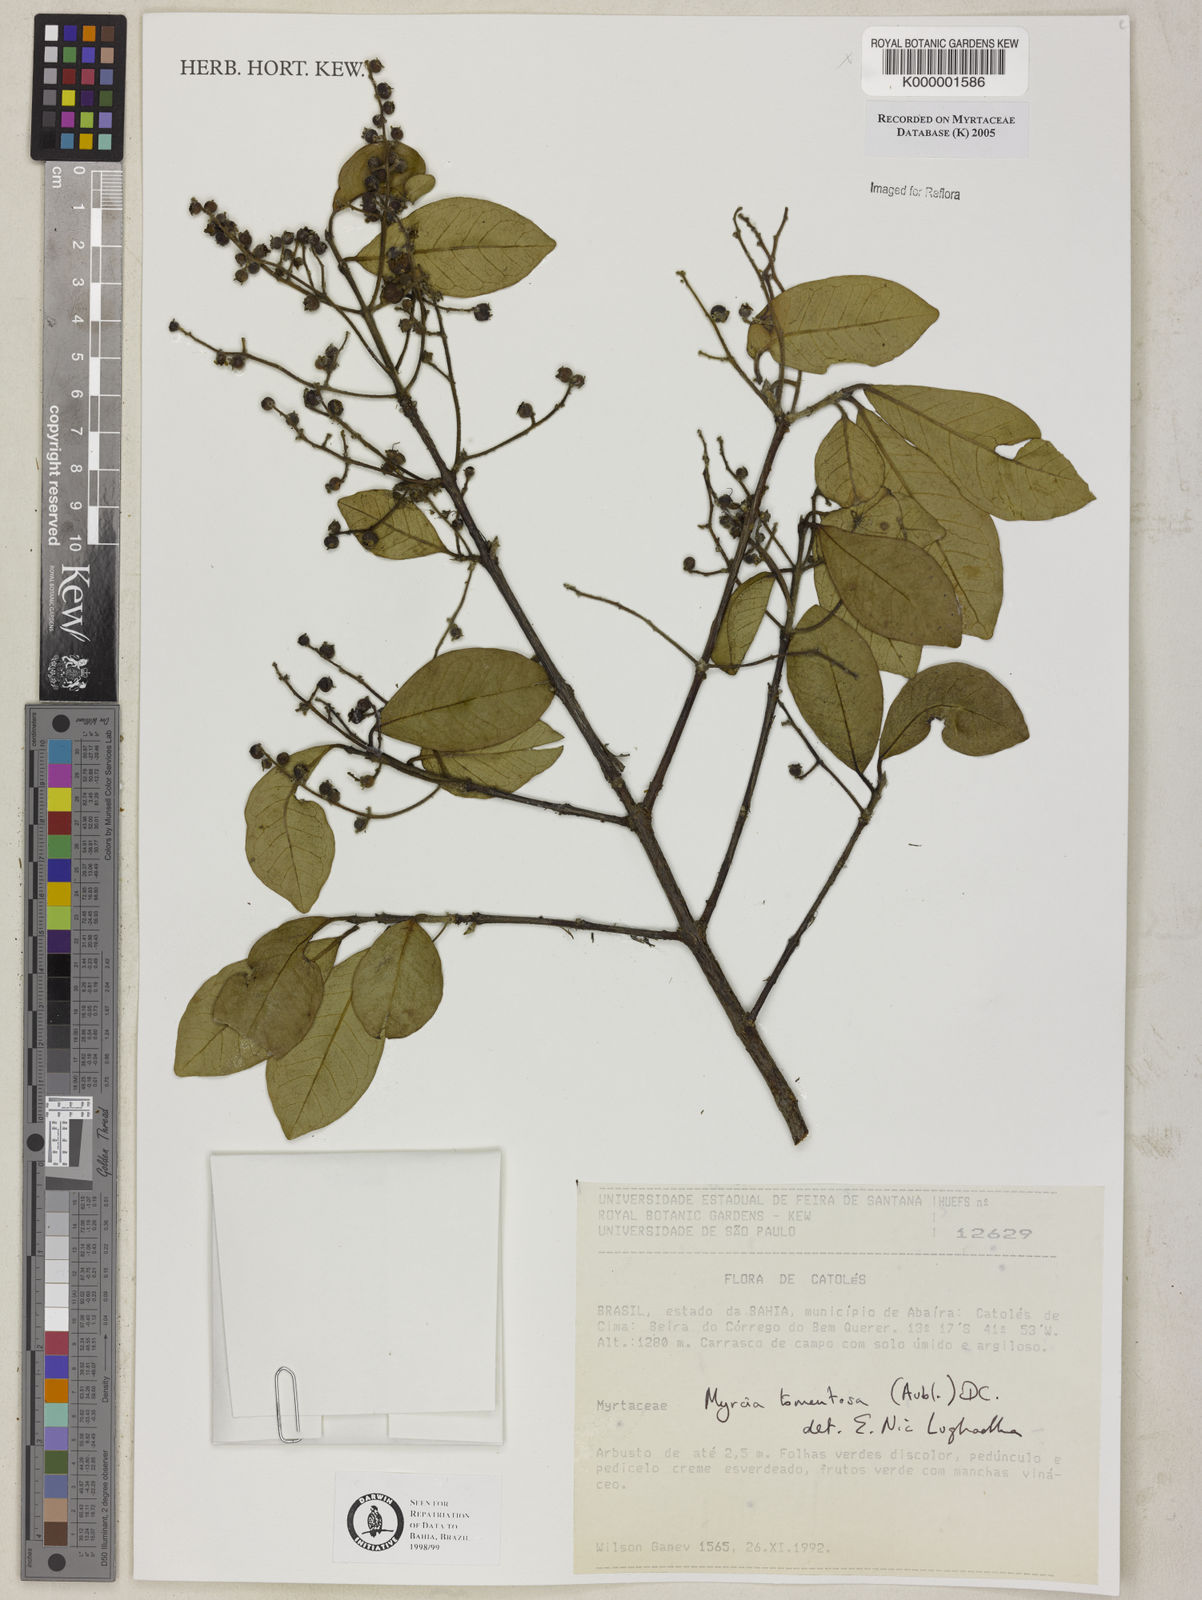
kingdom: Plantae
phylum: Tracheophyta
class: Magnoliopsida
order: Myrtales
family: Myrtaceae
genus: Myrcia
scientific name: Myrcia tomentosa
